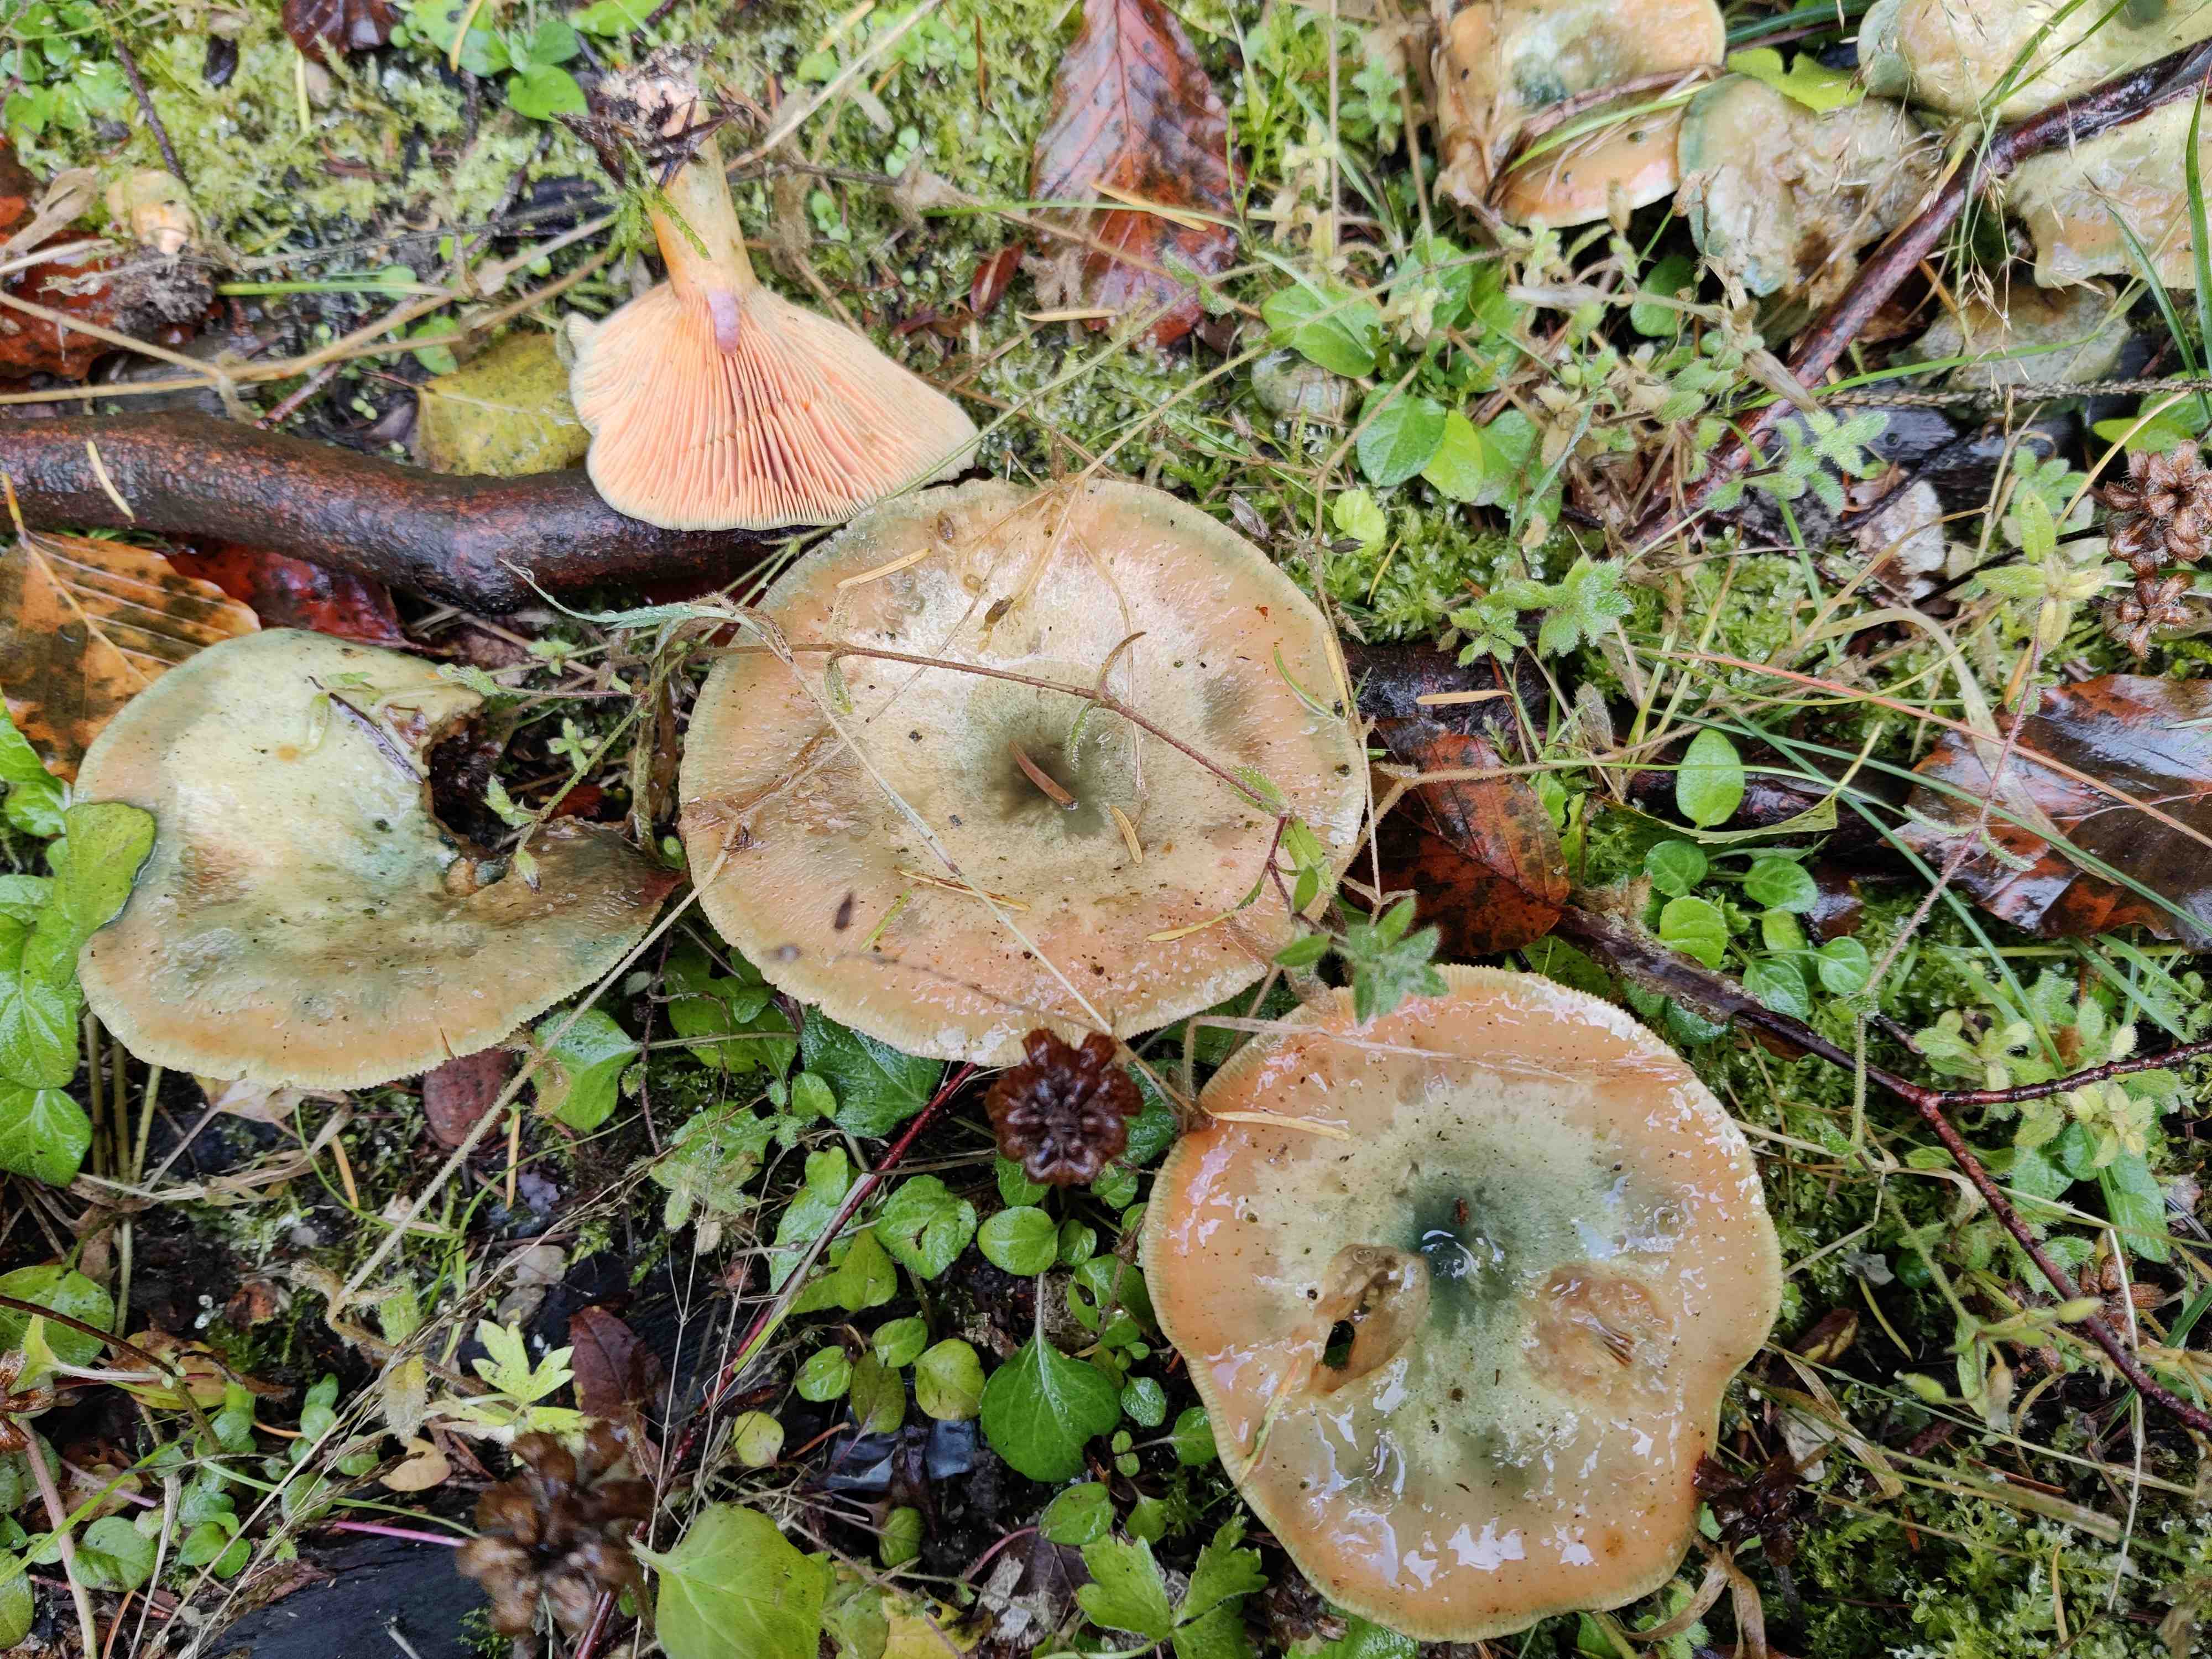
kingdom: Fungi
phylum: Basidiomycota
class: Agaricomycetes
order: Russulales
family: Russulaceae
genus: Lactarius
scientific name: Lactarius deterrimus
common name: gran-mælkehat
